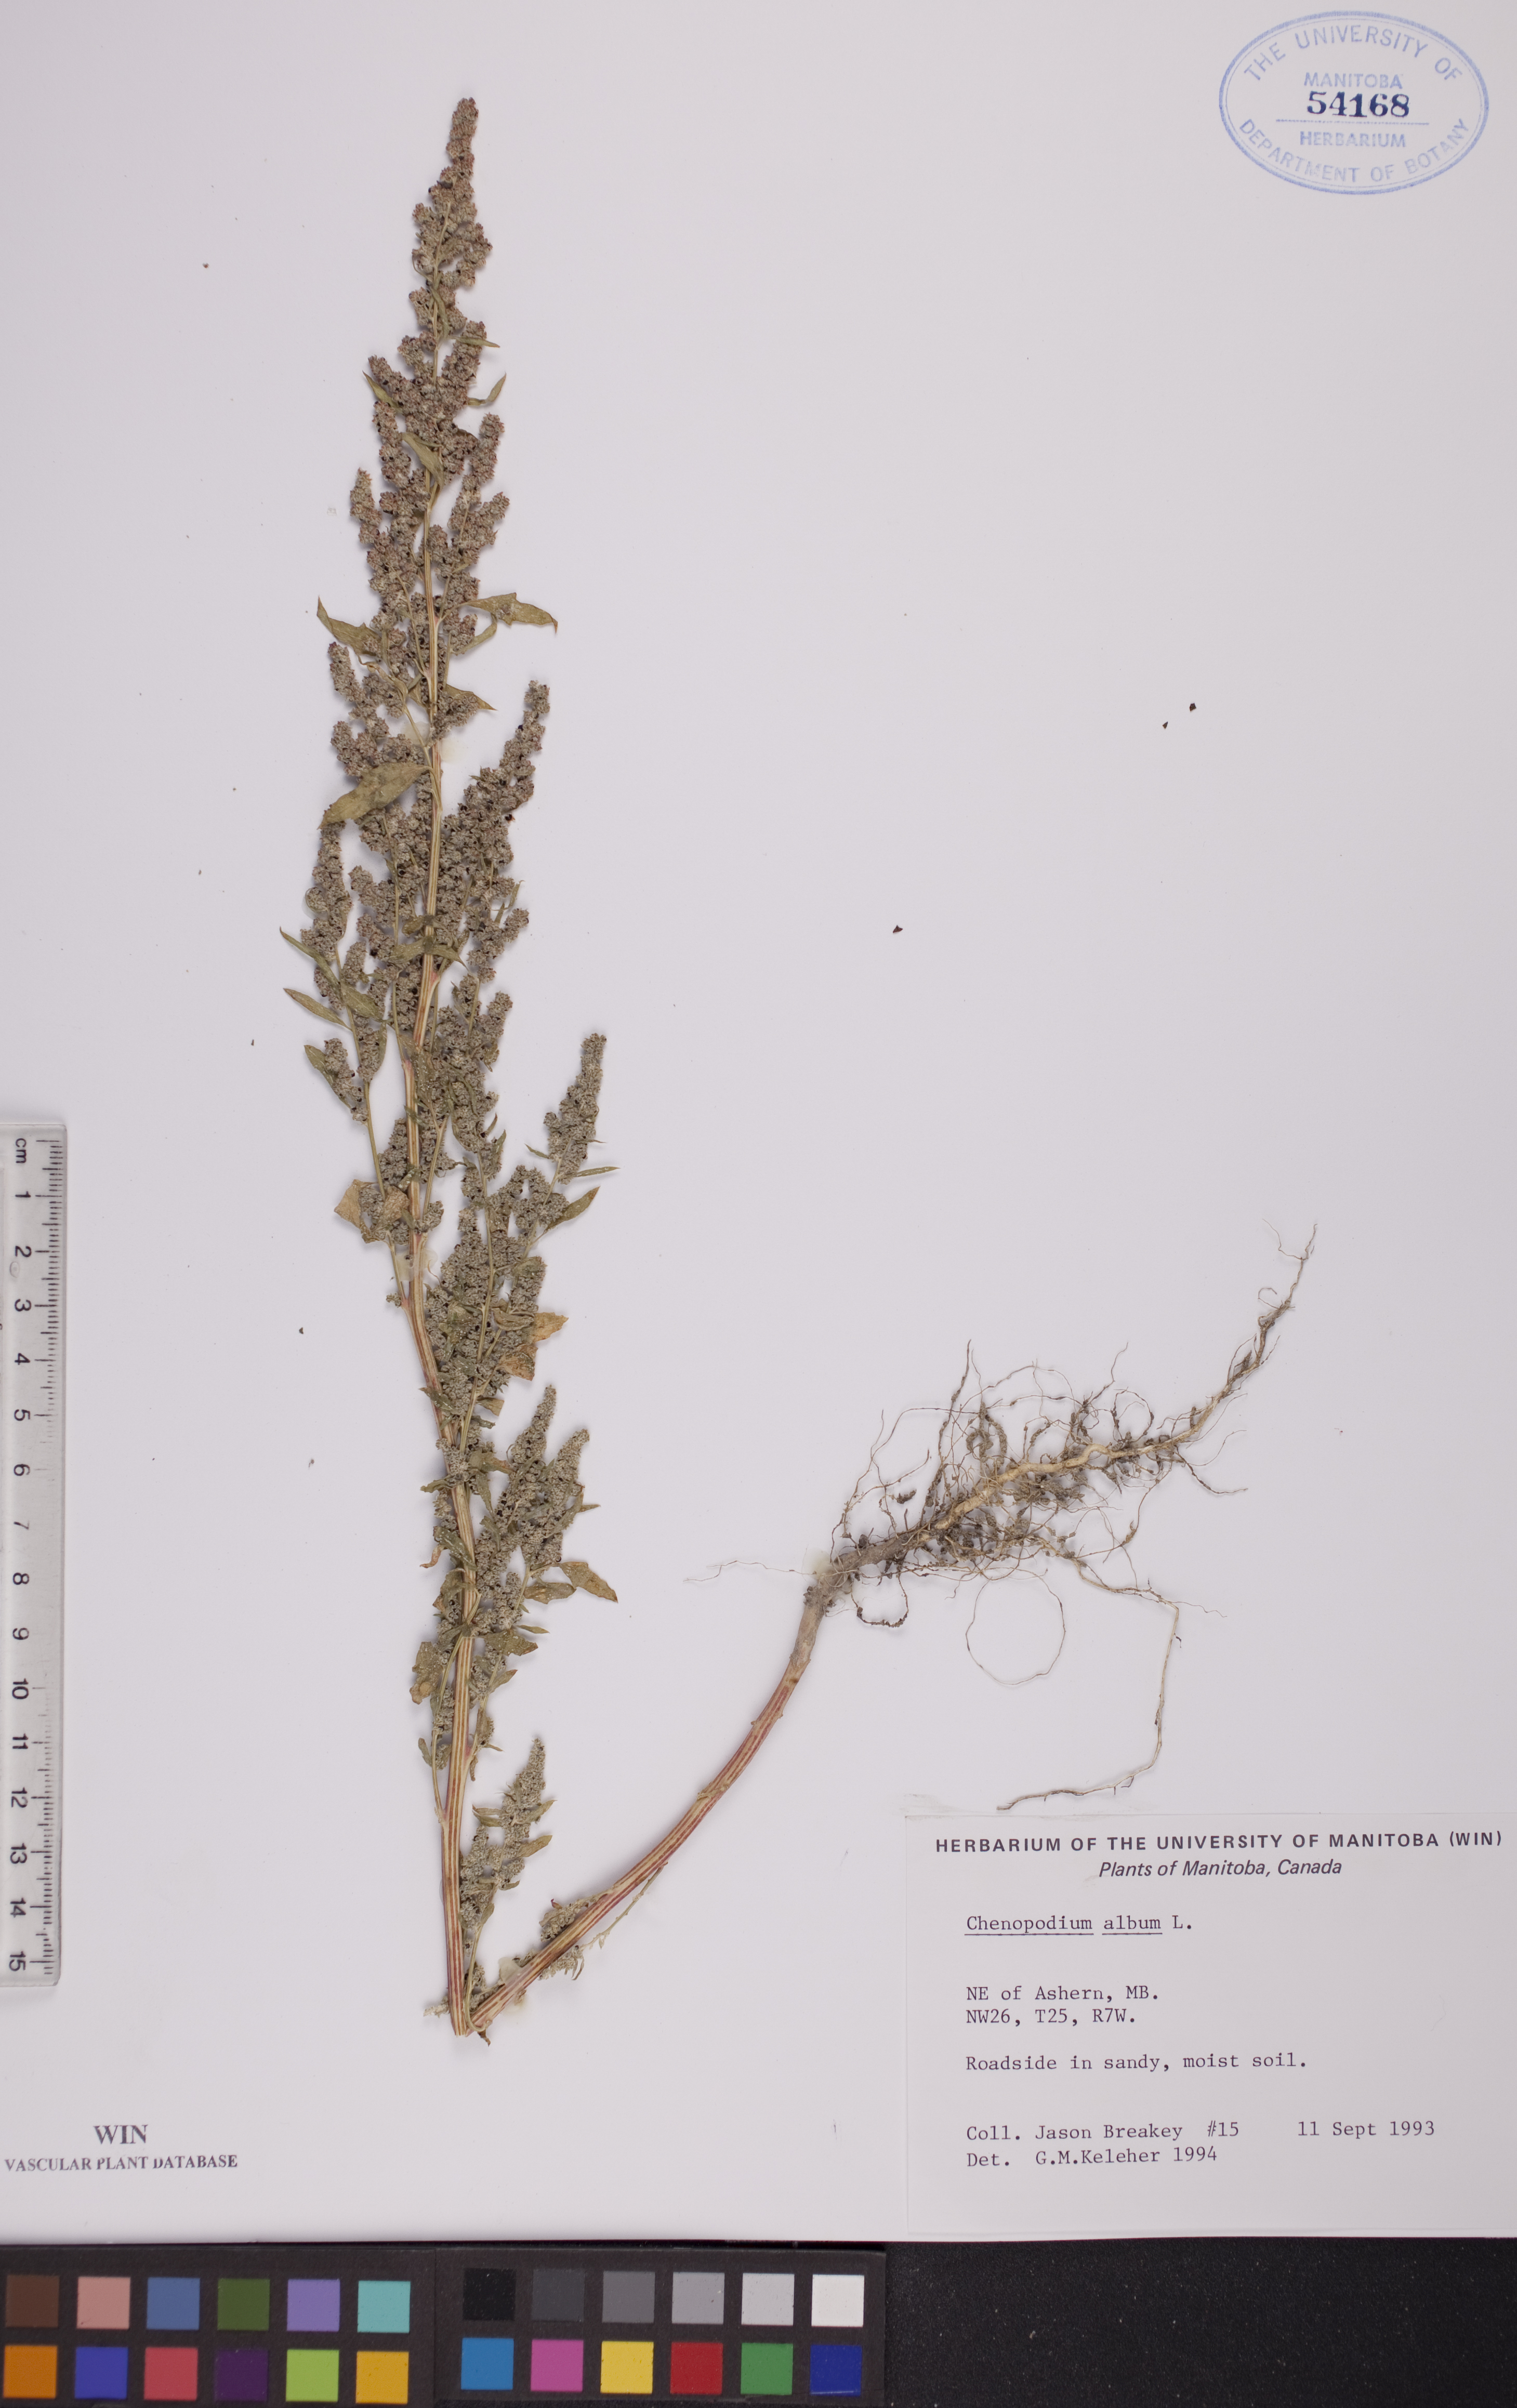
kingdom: Plantae
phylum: Tracheophyta
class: Magnoliopsida
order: Caryophyllales
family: Amaranthaceae
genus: Chenopodium
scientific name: Chenopodium album
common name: Fat-hen
